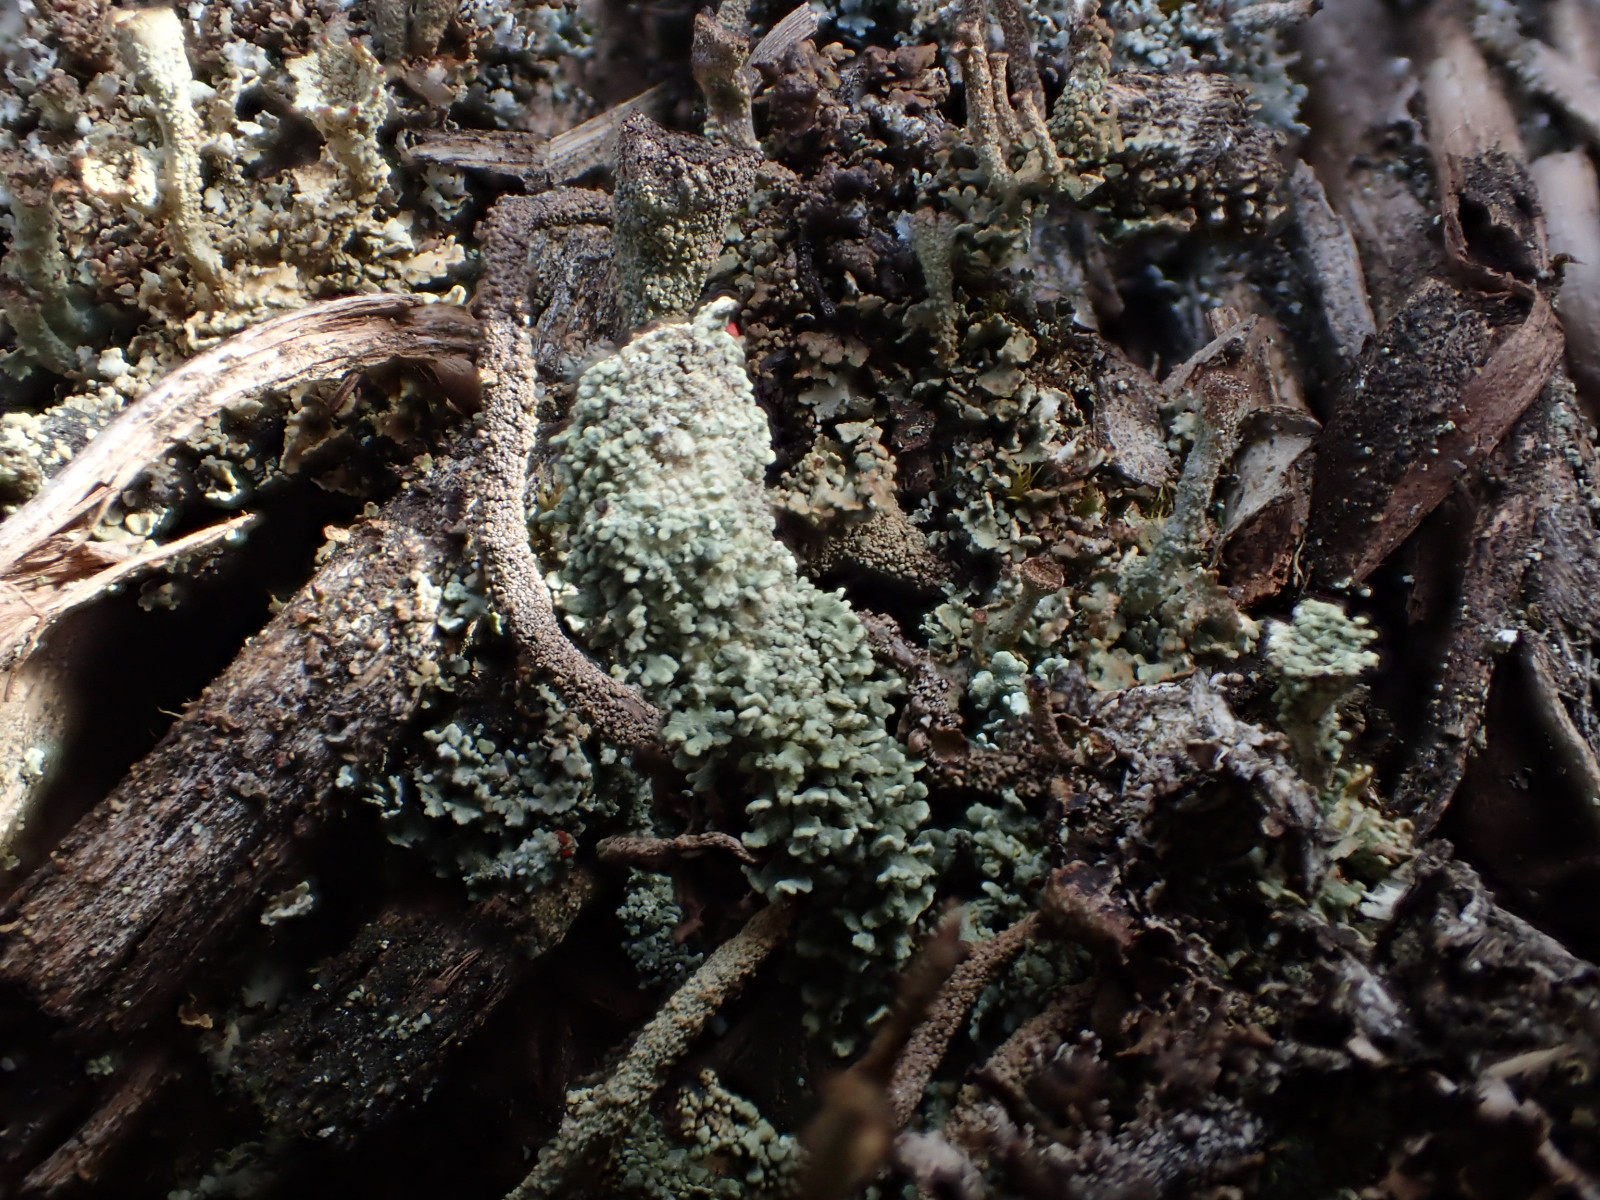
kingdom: Fungi
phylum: Ascomycota
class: Lecanoromycetes
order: Lecanorales
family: Cladoniaceae
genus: Cladonia
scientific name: Cladonia diversa
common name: rød bægerlav
